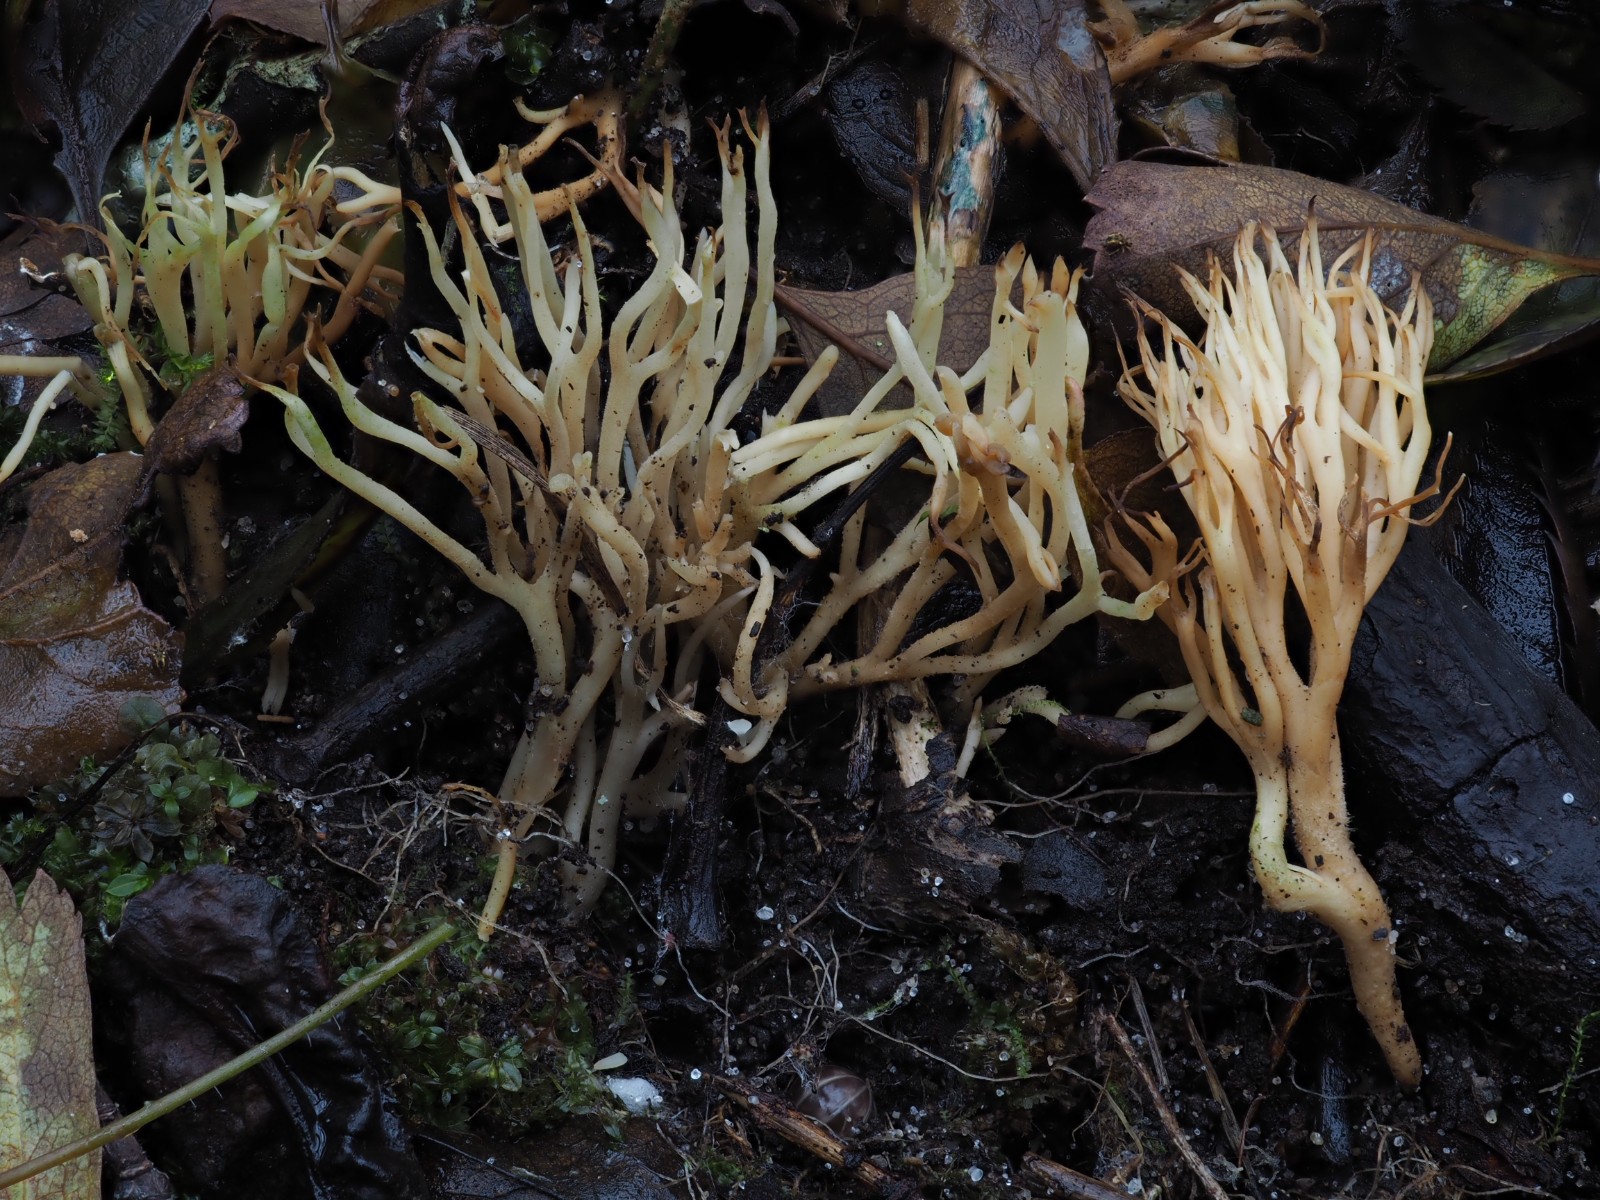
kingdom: Fungi
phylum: Basidiomycota
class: Agaricomycetes
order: Agaricales
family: Clavariaceae
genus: Ramariopsis
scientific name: Ramariopsis
